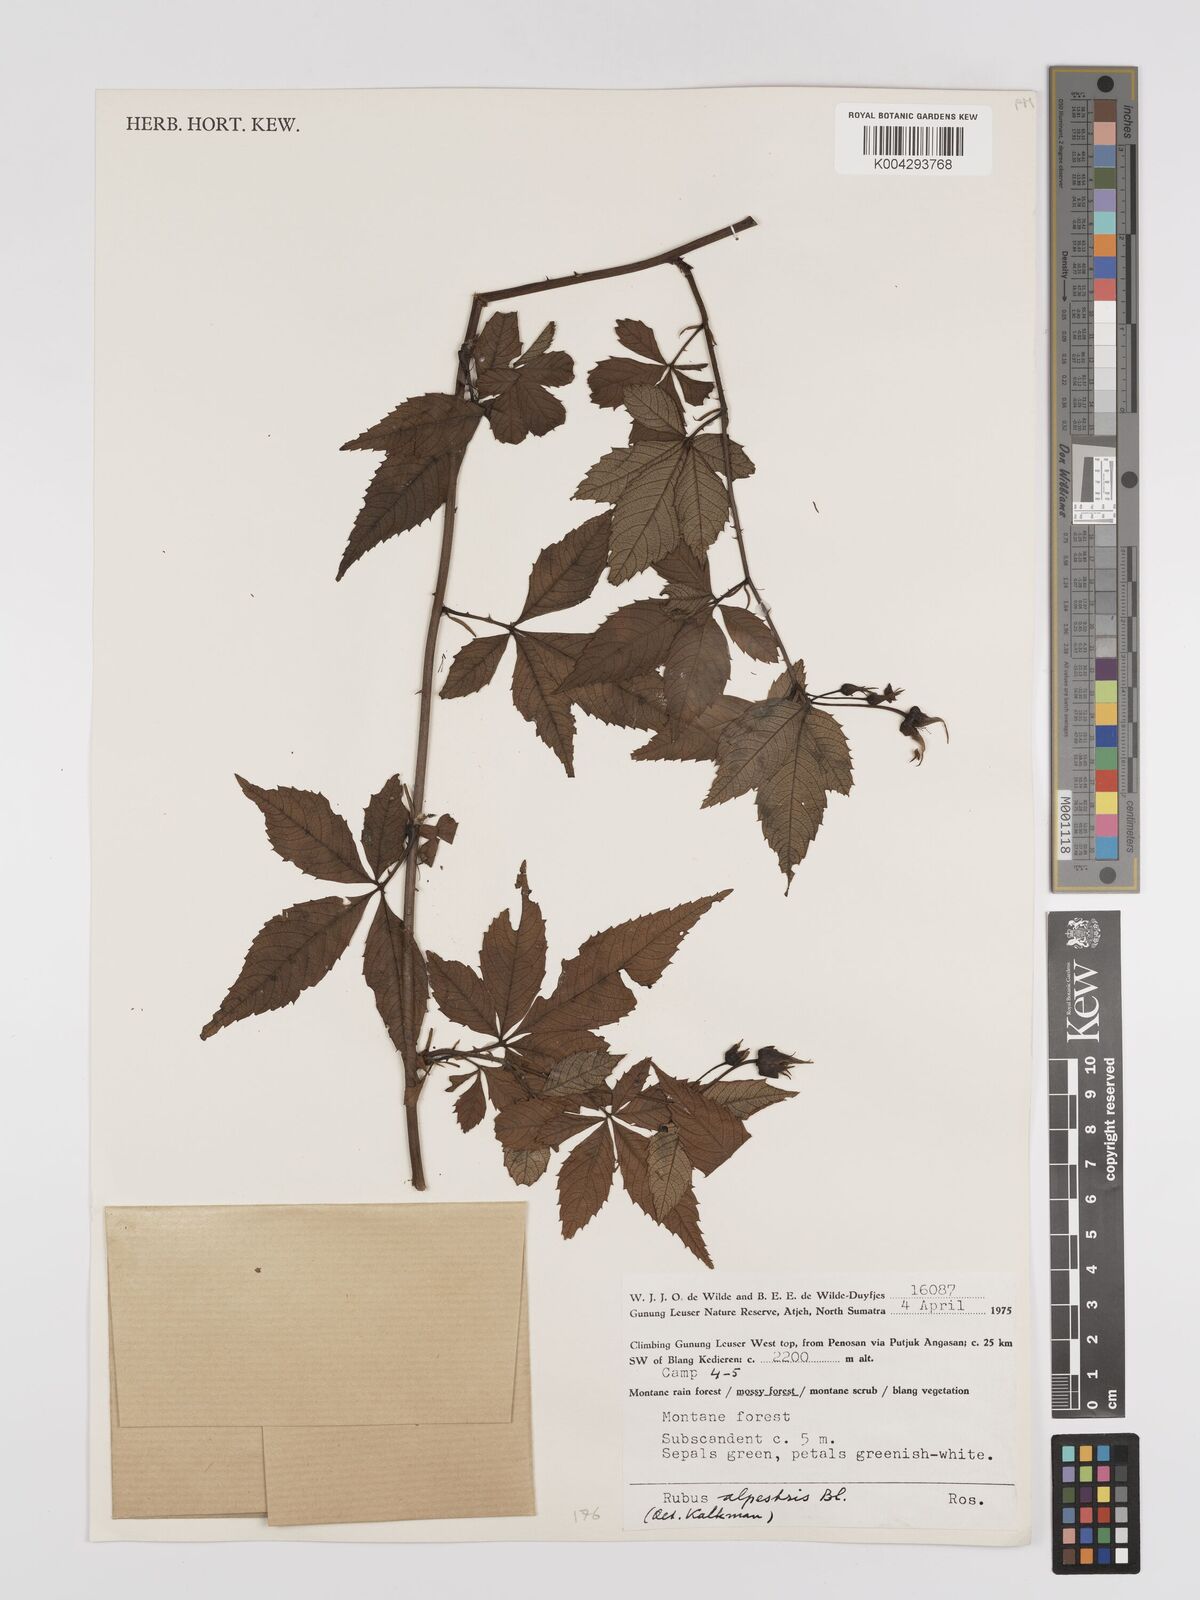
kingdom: Plantae
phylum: Tracheophyta
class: Magnoliopsida
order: Rosales
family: Rosaceae
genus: Rubus
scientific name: Rubus alpestris
